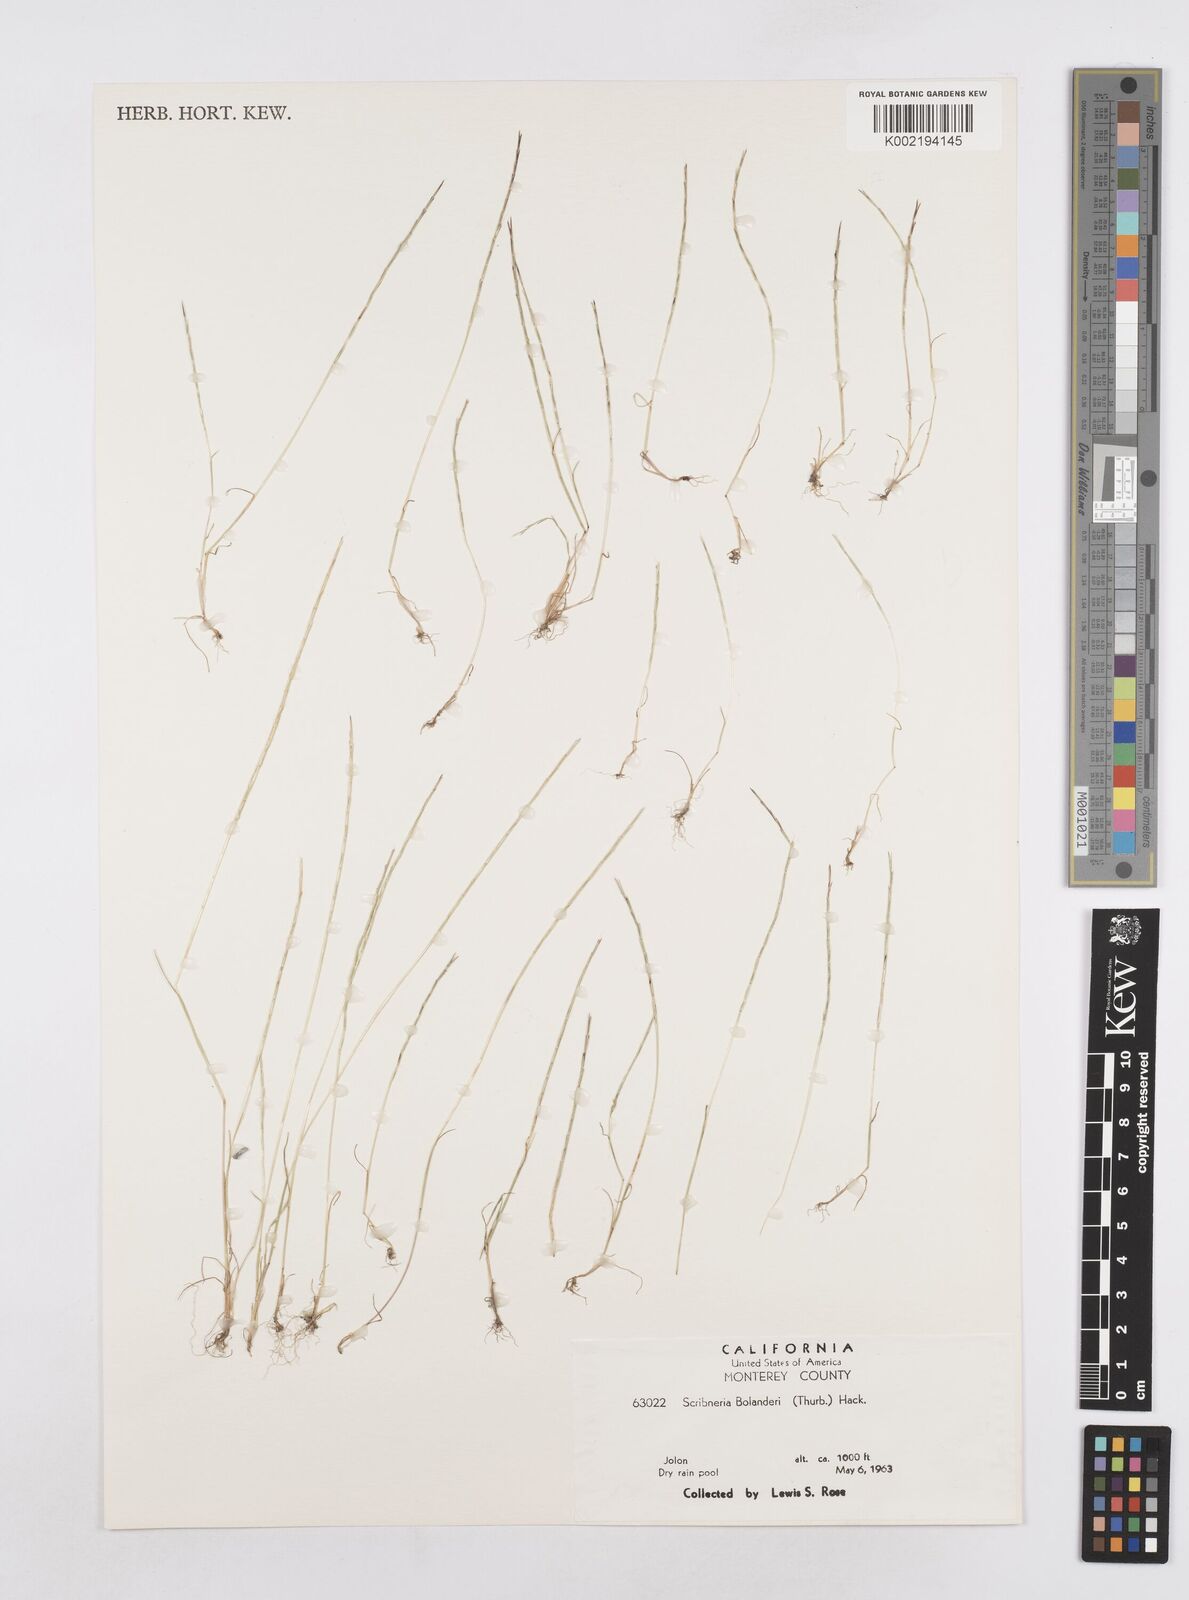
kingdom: Plantae
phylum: Tracheophyta
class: Liliopsida
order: Poales
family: Poaceae
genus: Deschampsia
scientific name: Deschampsia bolanderi
